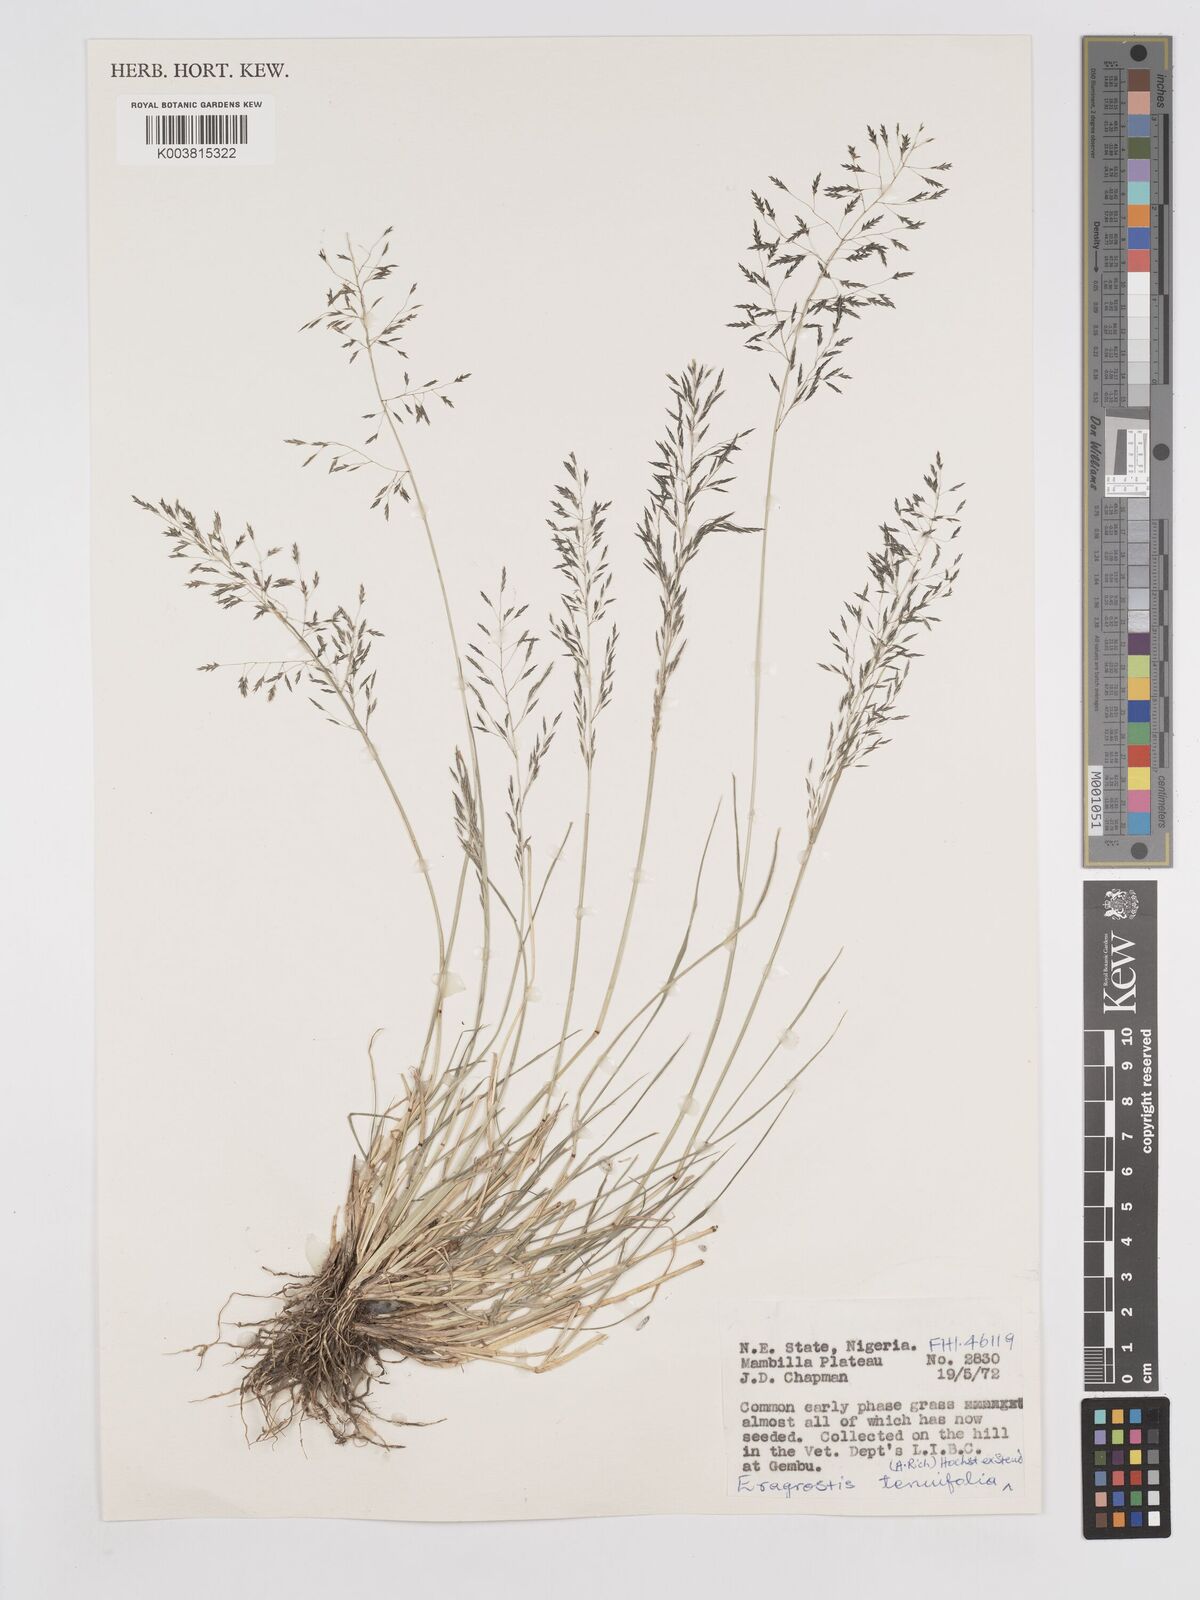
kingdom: Plantae
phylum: Tracheophyta
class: Liliopsida
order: Poales
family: Poaceae
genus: Eragrostis
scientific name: Eragrostis tenuifolia
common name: Elastic grass
